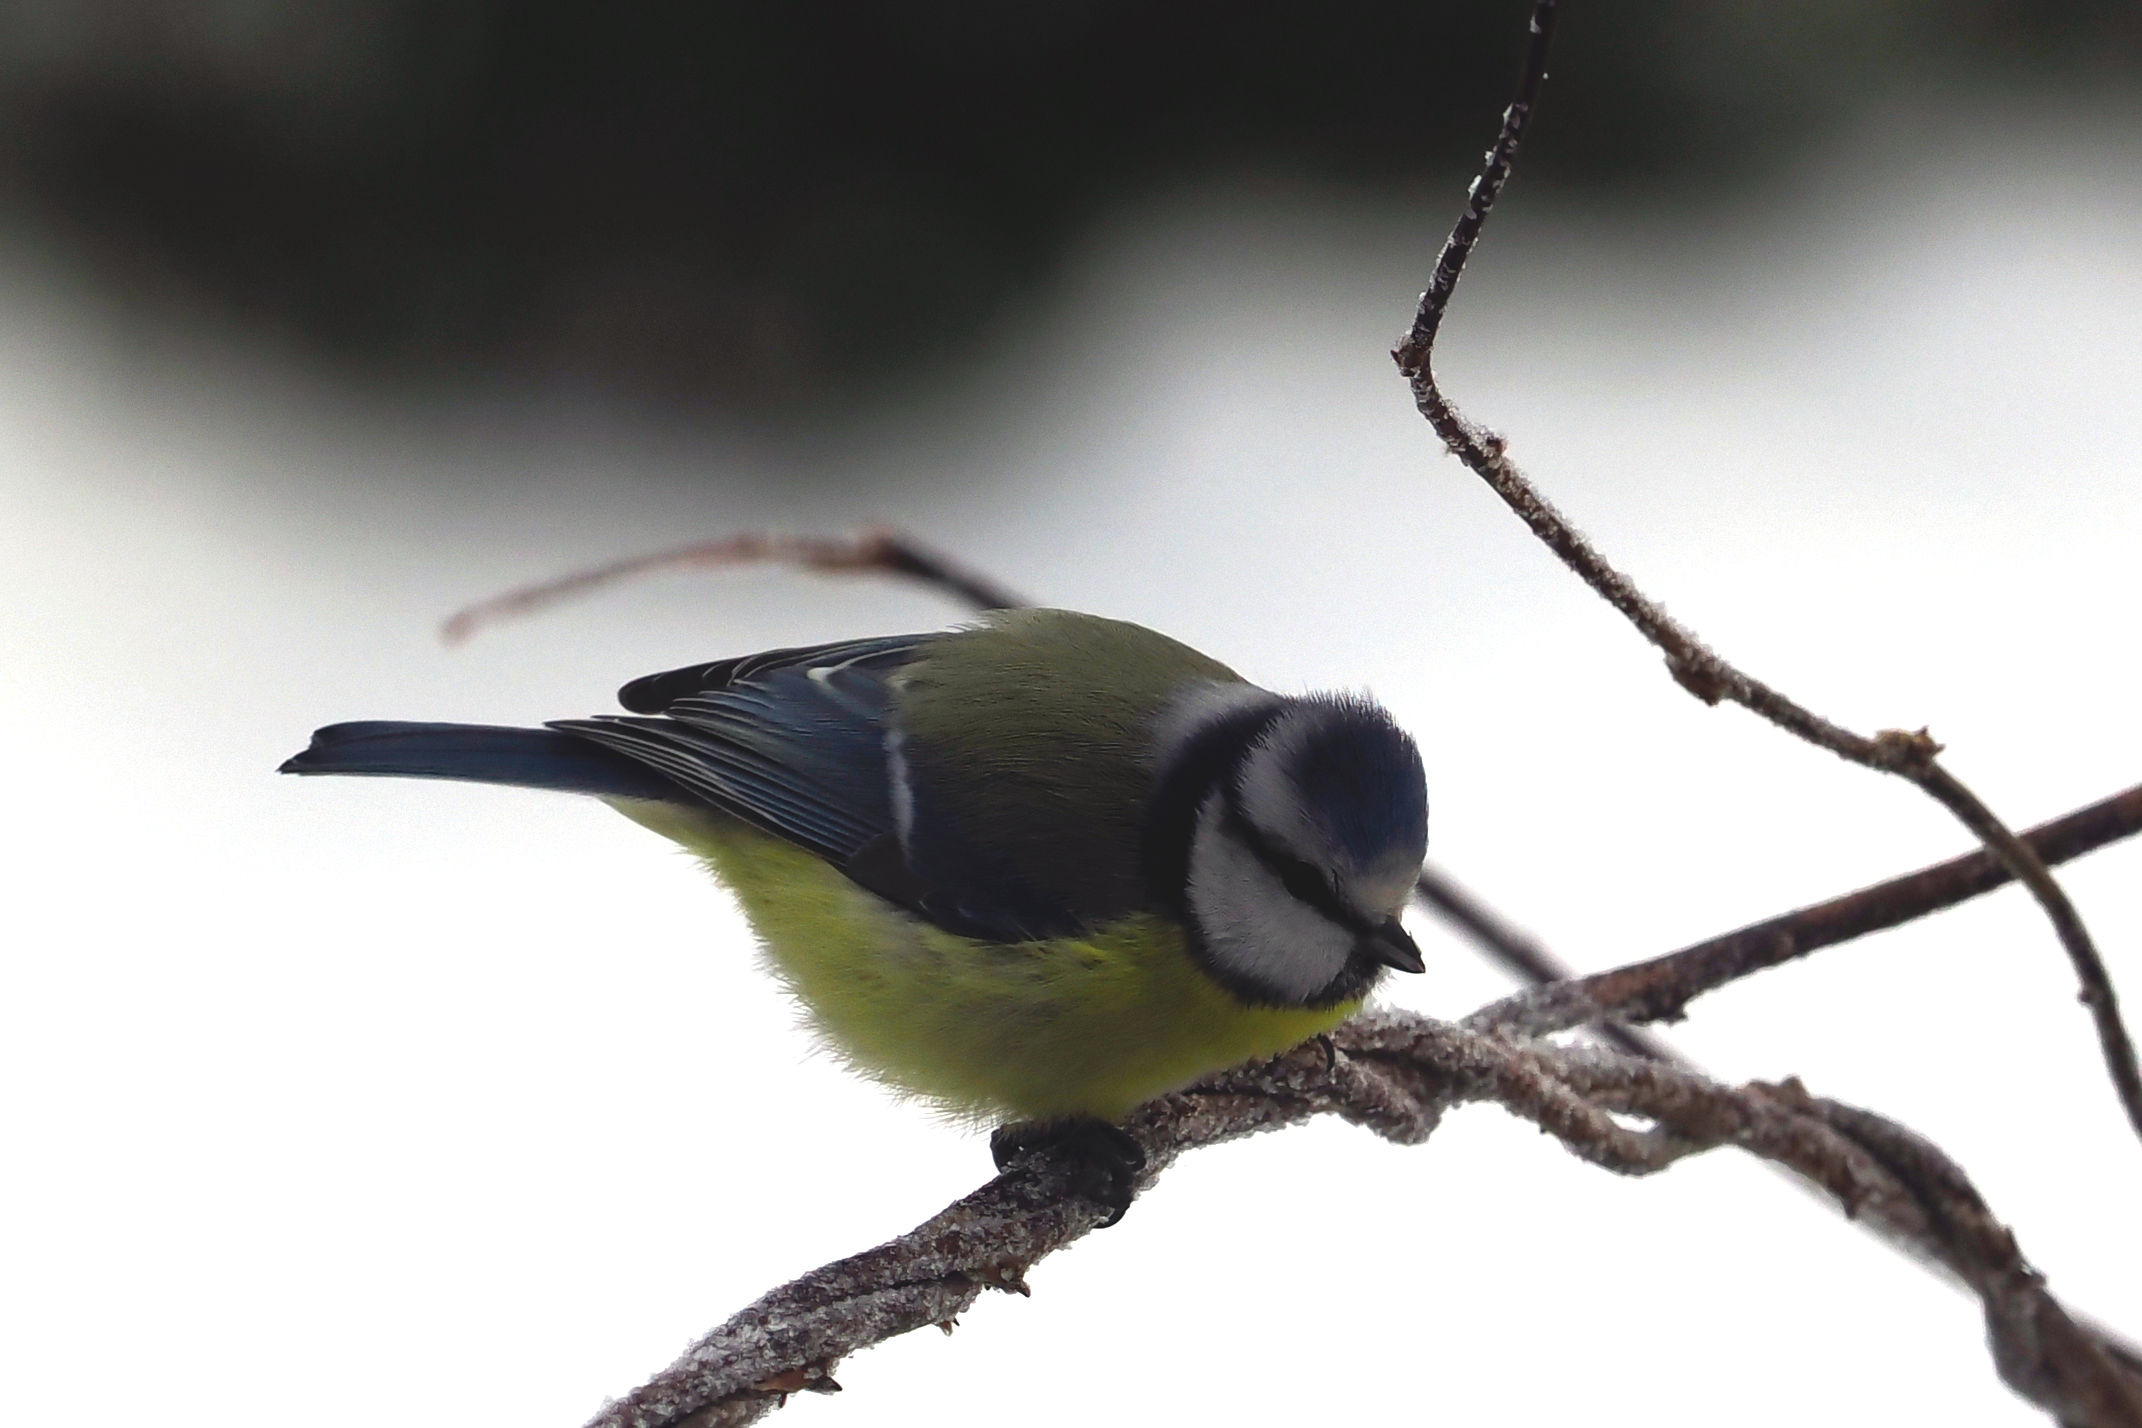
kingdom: Animalia
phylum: Chordata
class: Aves
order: Passeriformes
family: Paridae
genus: Cyanistes
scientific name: Cyanistes caeruleus
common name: Blåmejse
